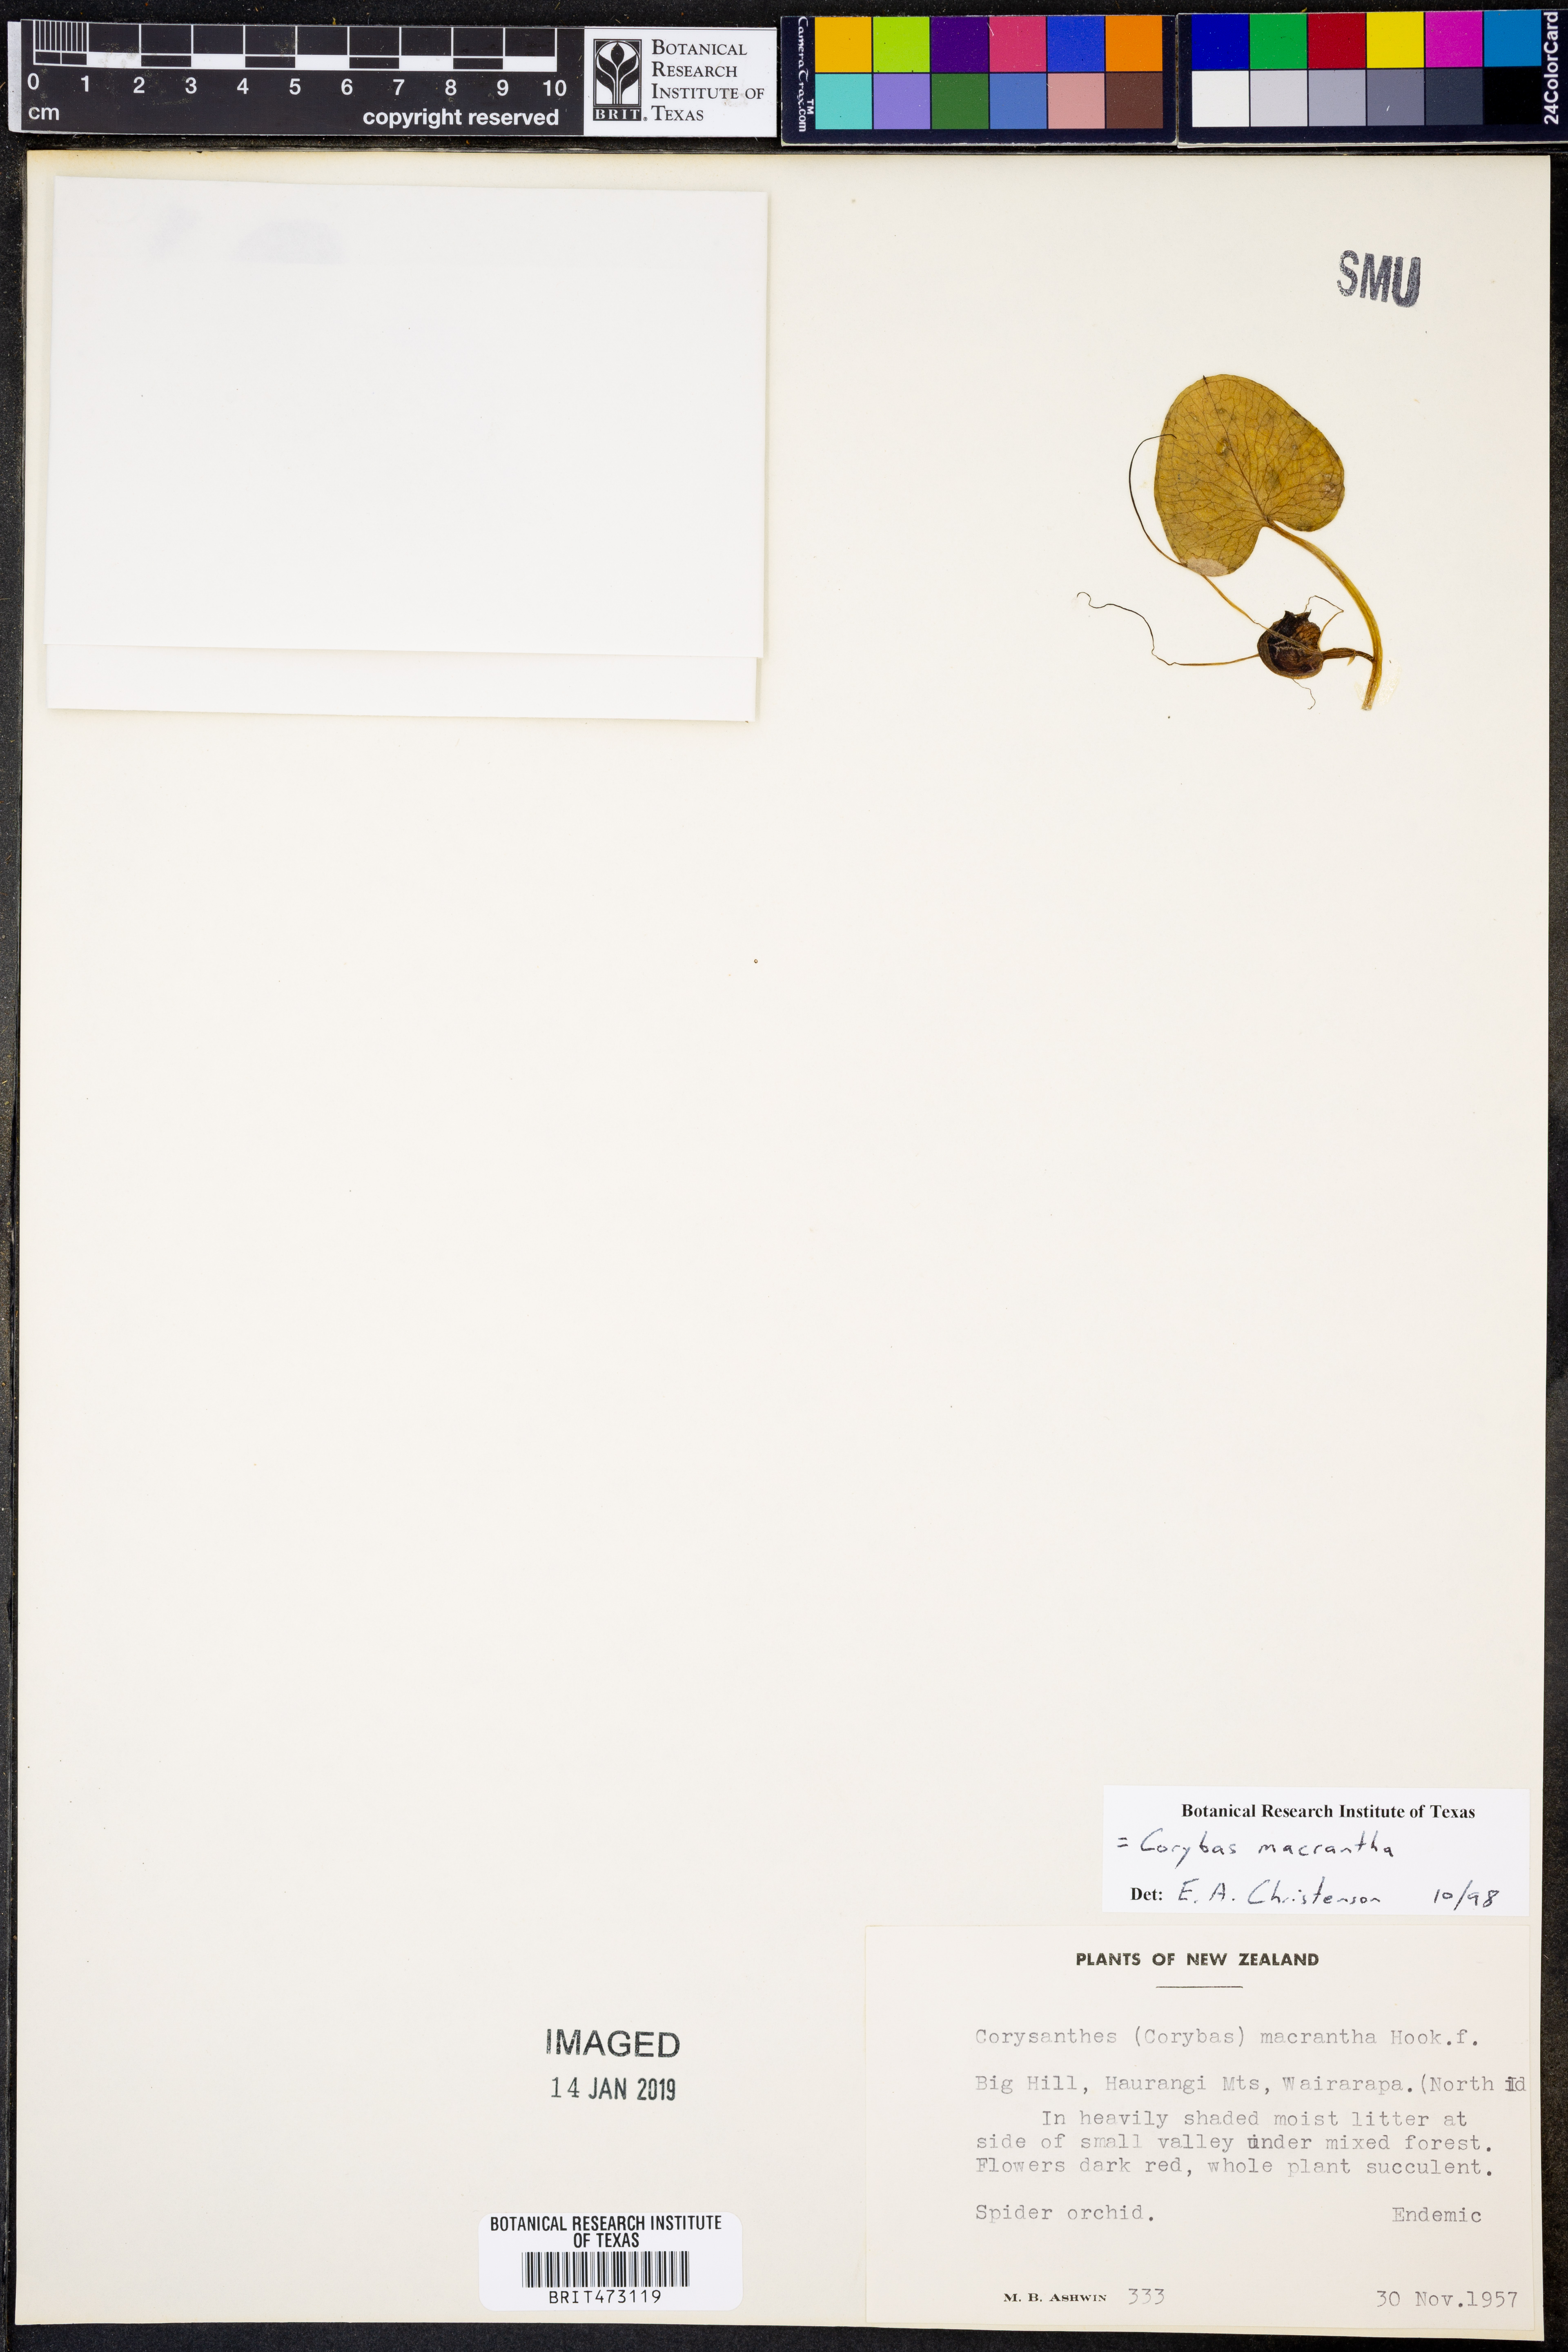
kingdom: Plantae
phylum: Tracheophyta
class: Liliopsida
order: Asparagales
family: Orchidaceae
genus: Corybas
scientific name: Corybas macranthus
